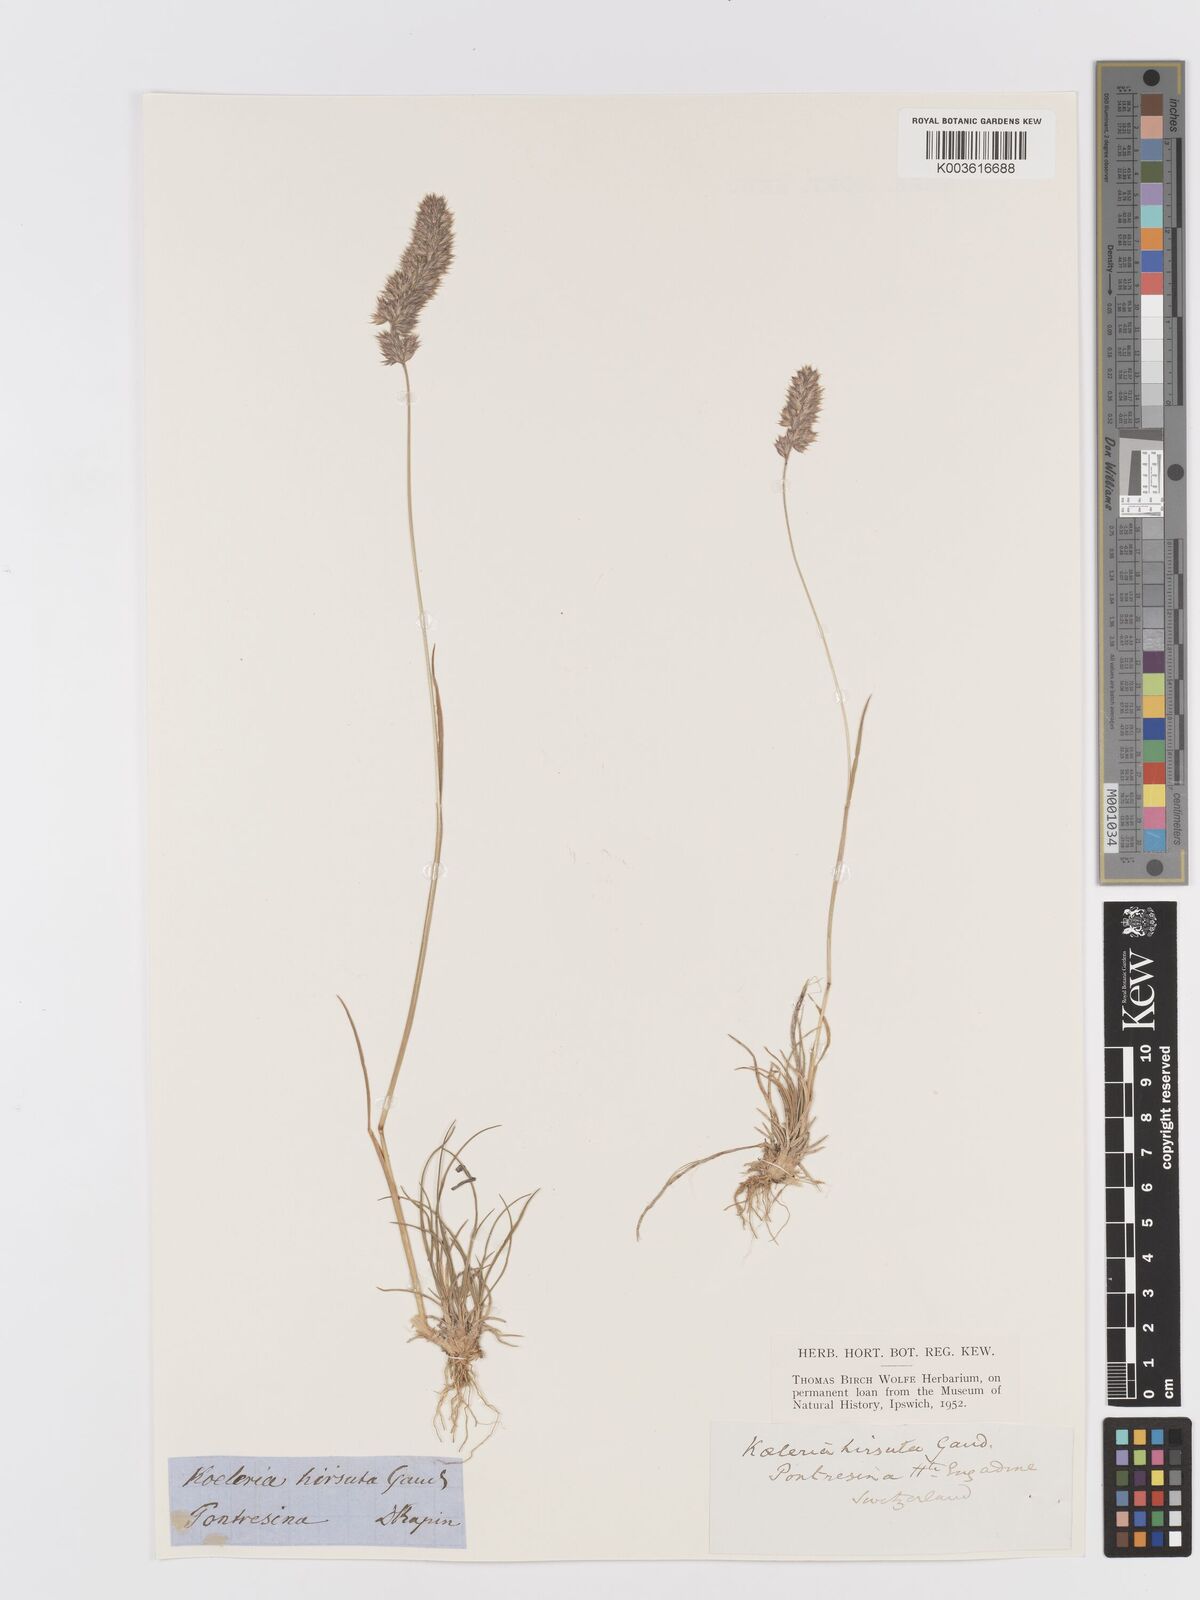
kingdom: Plantae
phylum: Tracheophyta
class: Liliopsida
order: Poales
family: Poaceae
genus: Koeleria
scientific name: Koeleria hirsuta
